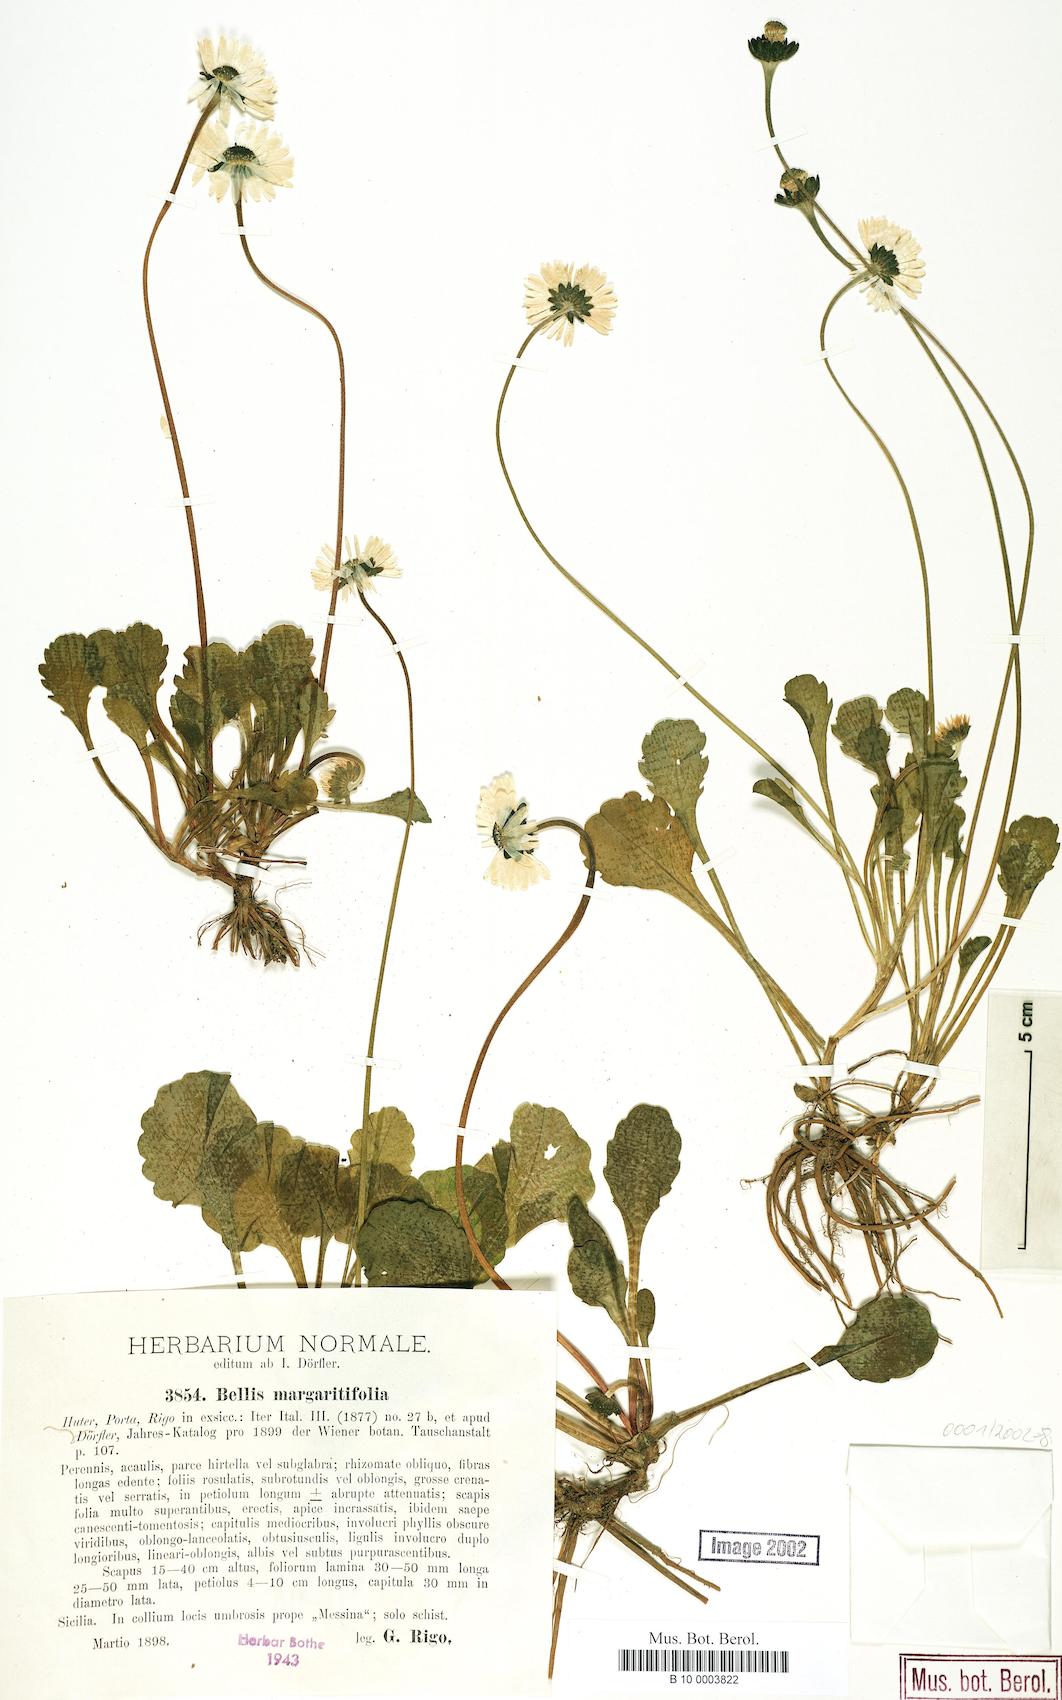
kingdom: Plantae
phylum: Tracheophyta
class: Magnoliopsida
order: Asterales
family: Asteraceae
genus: Bellis
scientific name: Bellis margaritifolia
